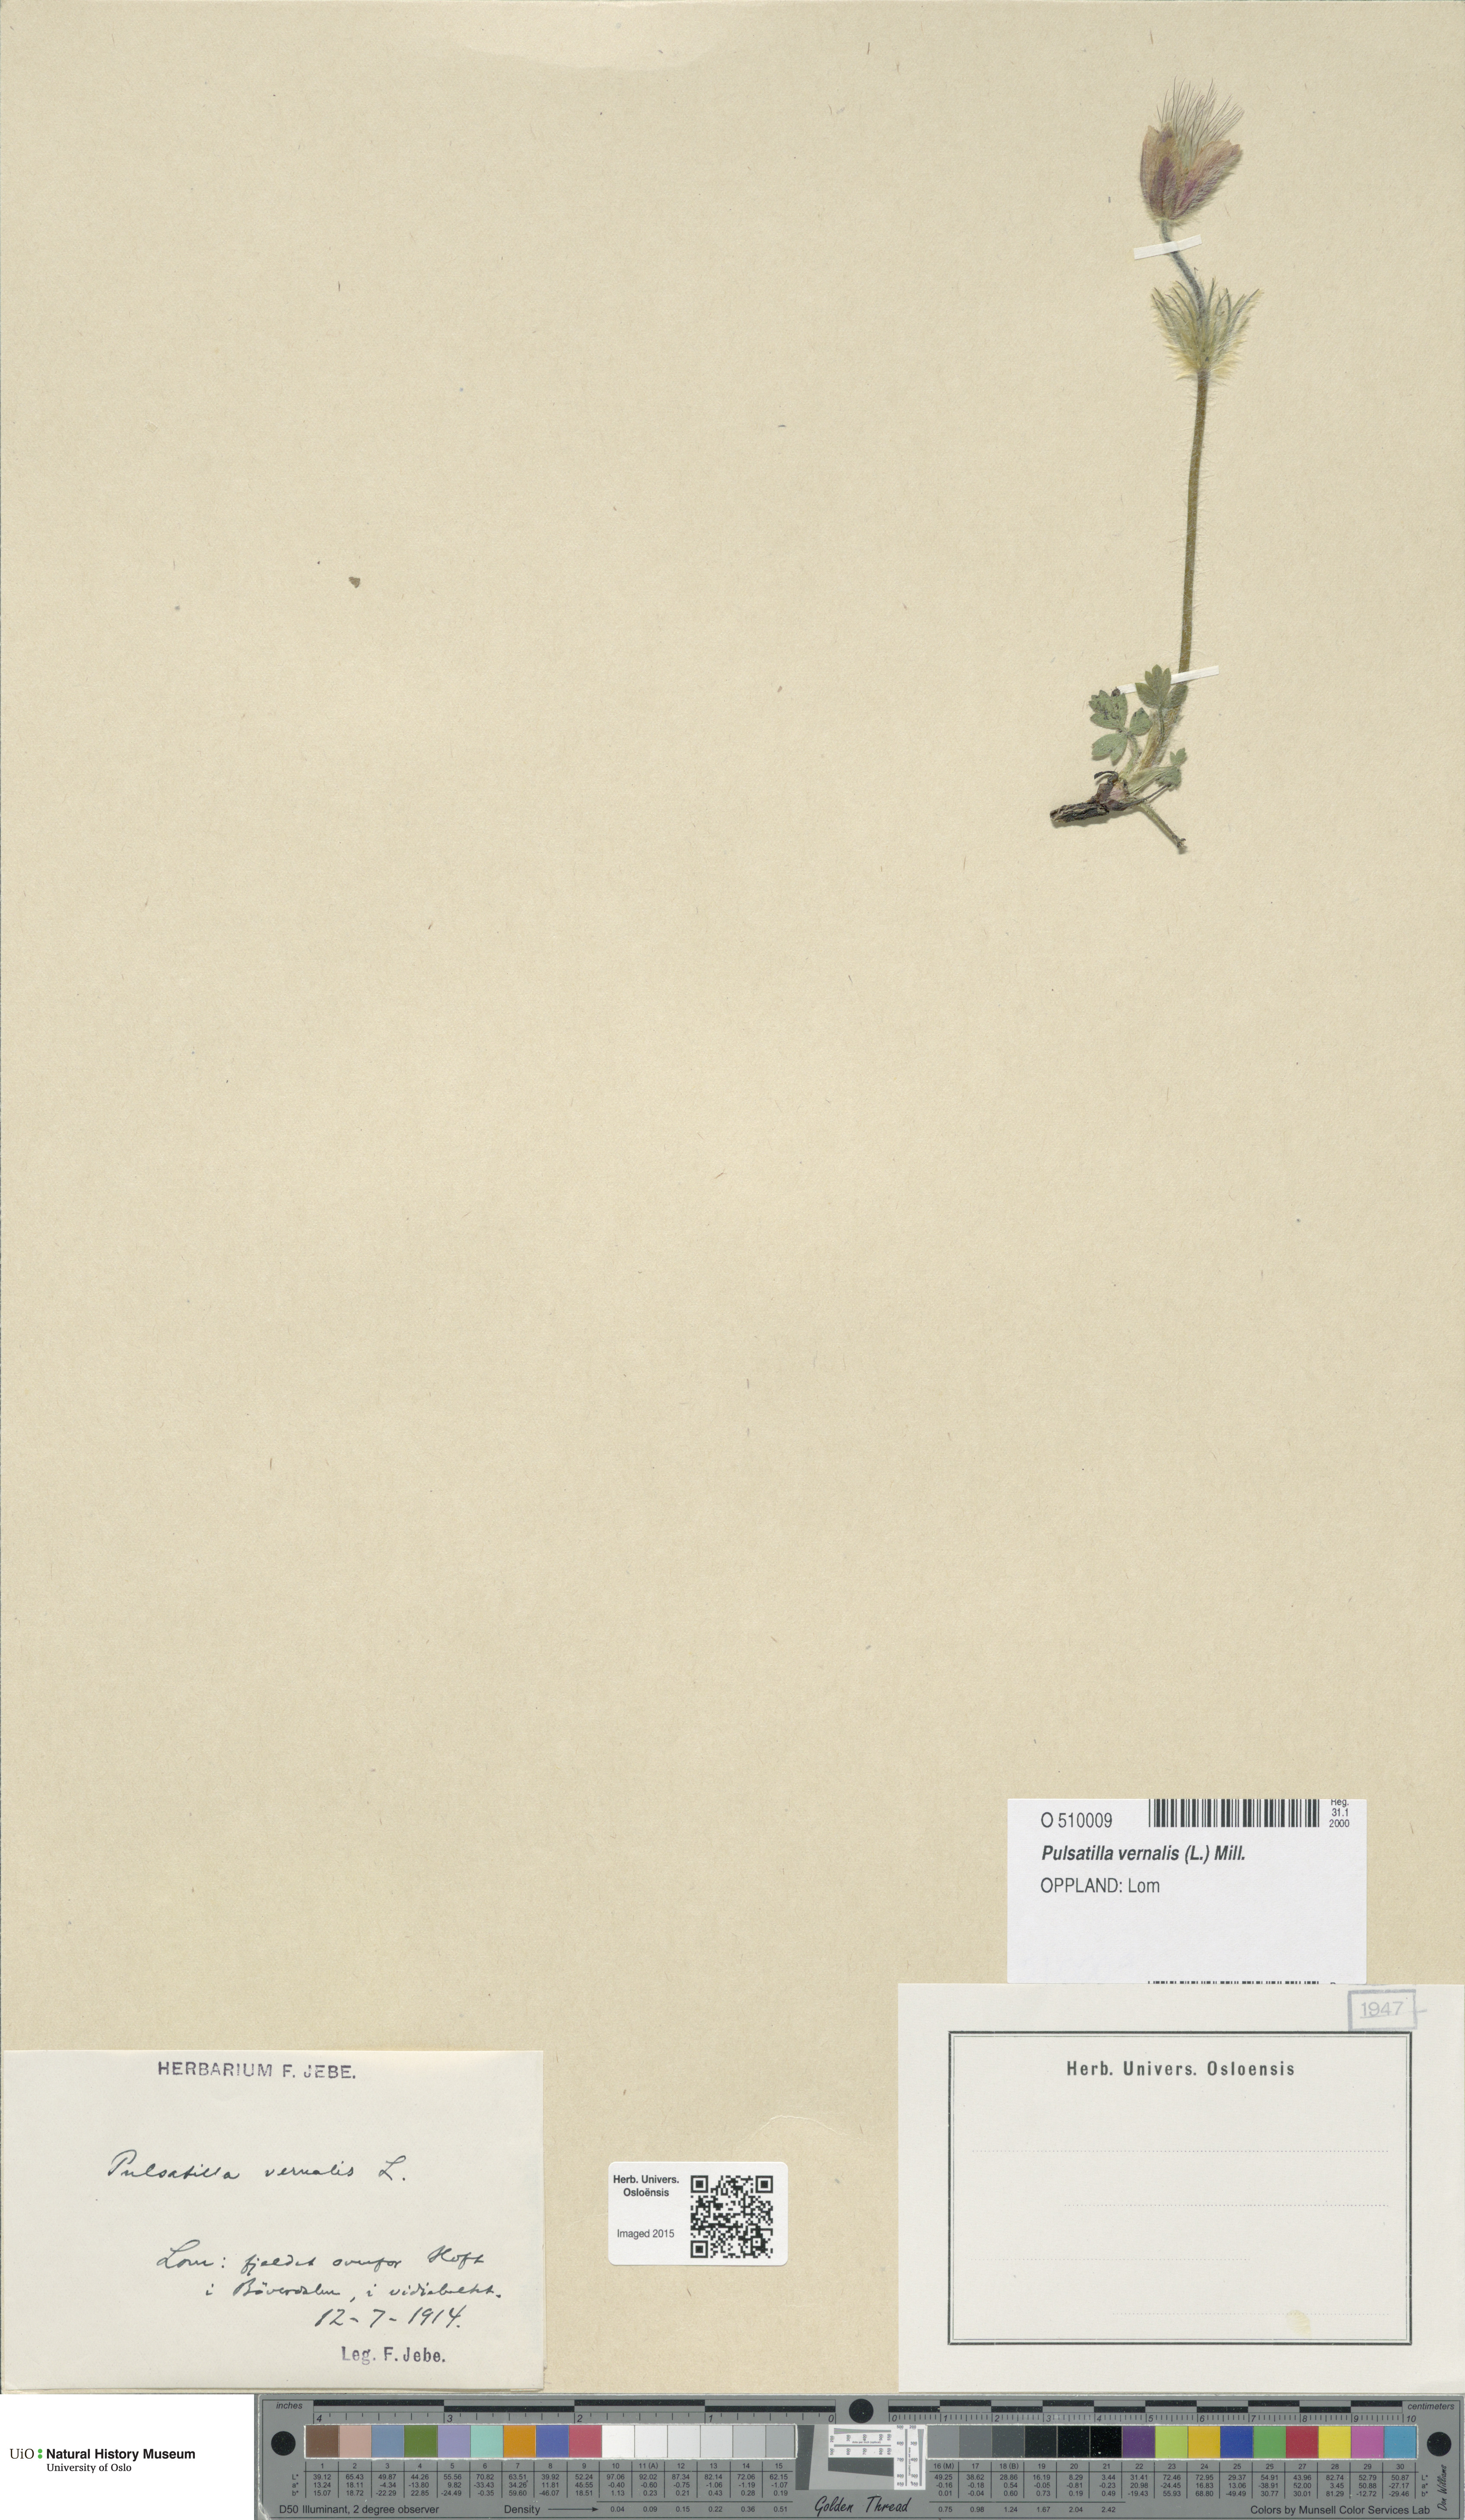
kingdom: Plantae
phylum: Tracheophyta
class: Magnoliopsida
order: Ranunculales
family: Ranunculaceae
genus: Pulsatilla
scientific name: Pulsatilla vernalis
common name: Spring pasque flower
